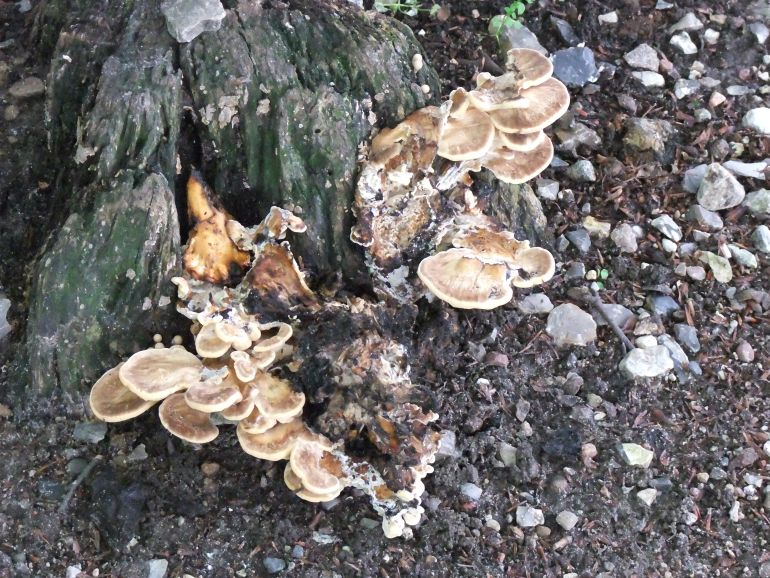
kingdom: Fungi
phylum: Basidiomycota
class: Agaricomycetes
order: Polyporales
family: Meripilaceae
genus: Meripilus
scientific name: Meripilus giganteus
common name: kæmpeporesvamp
